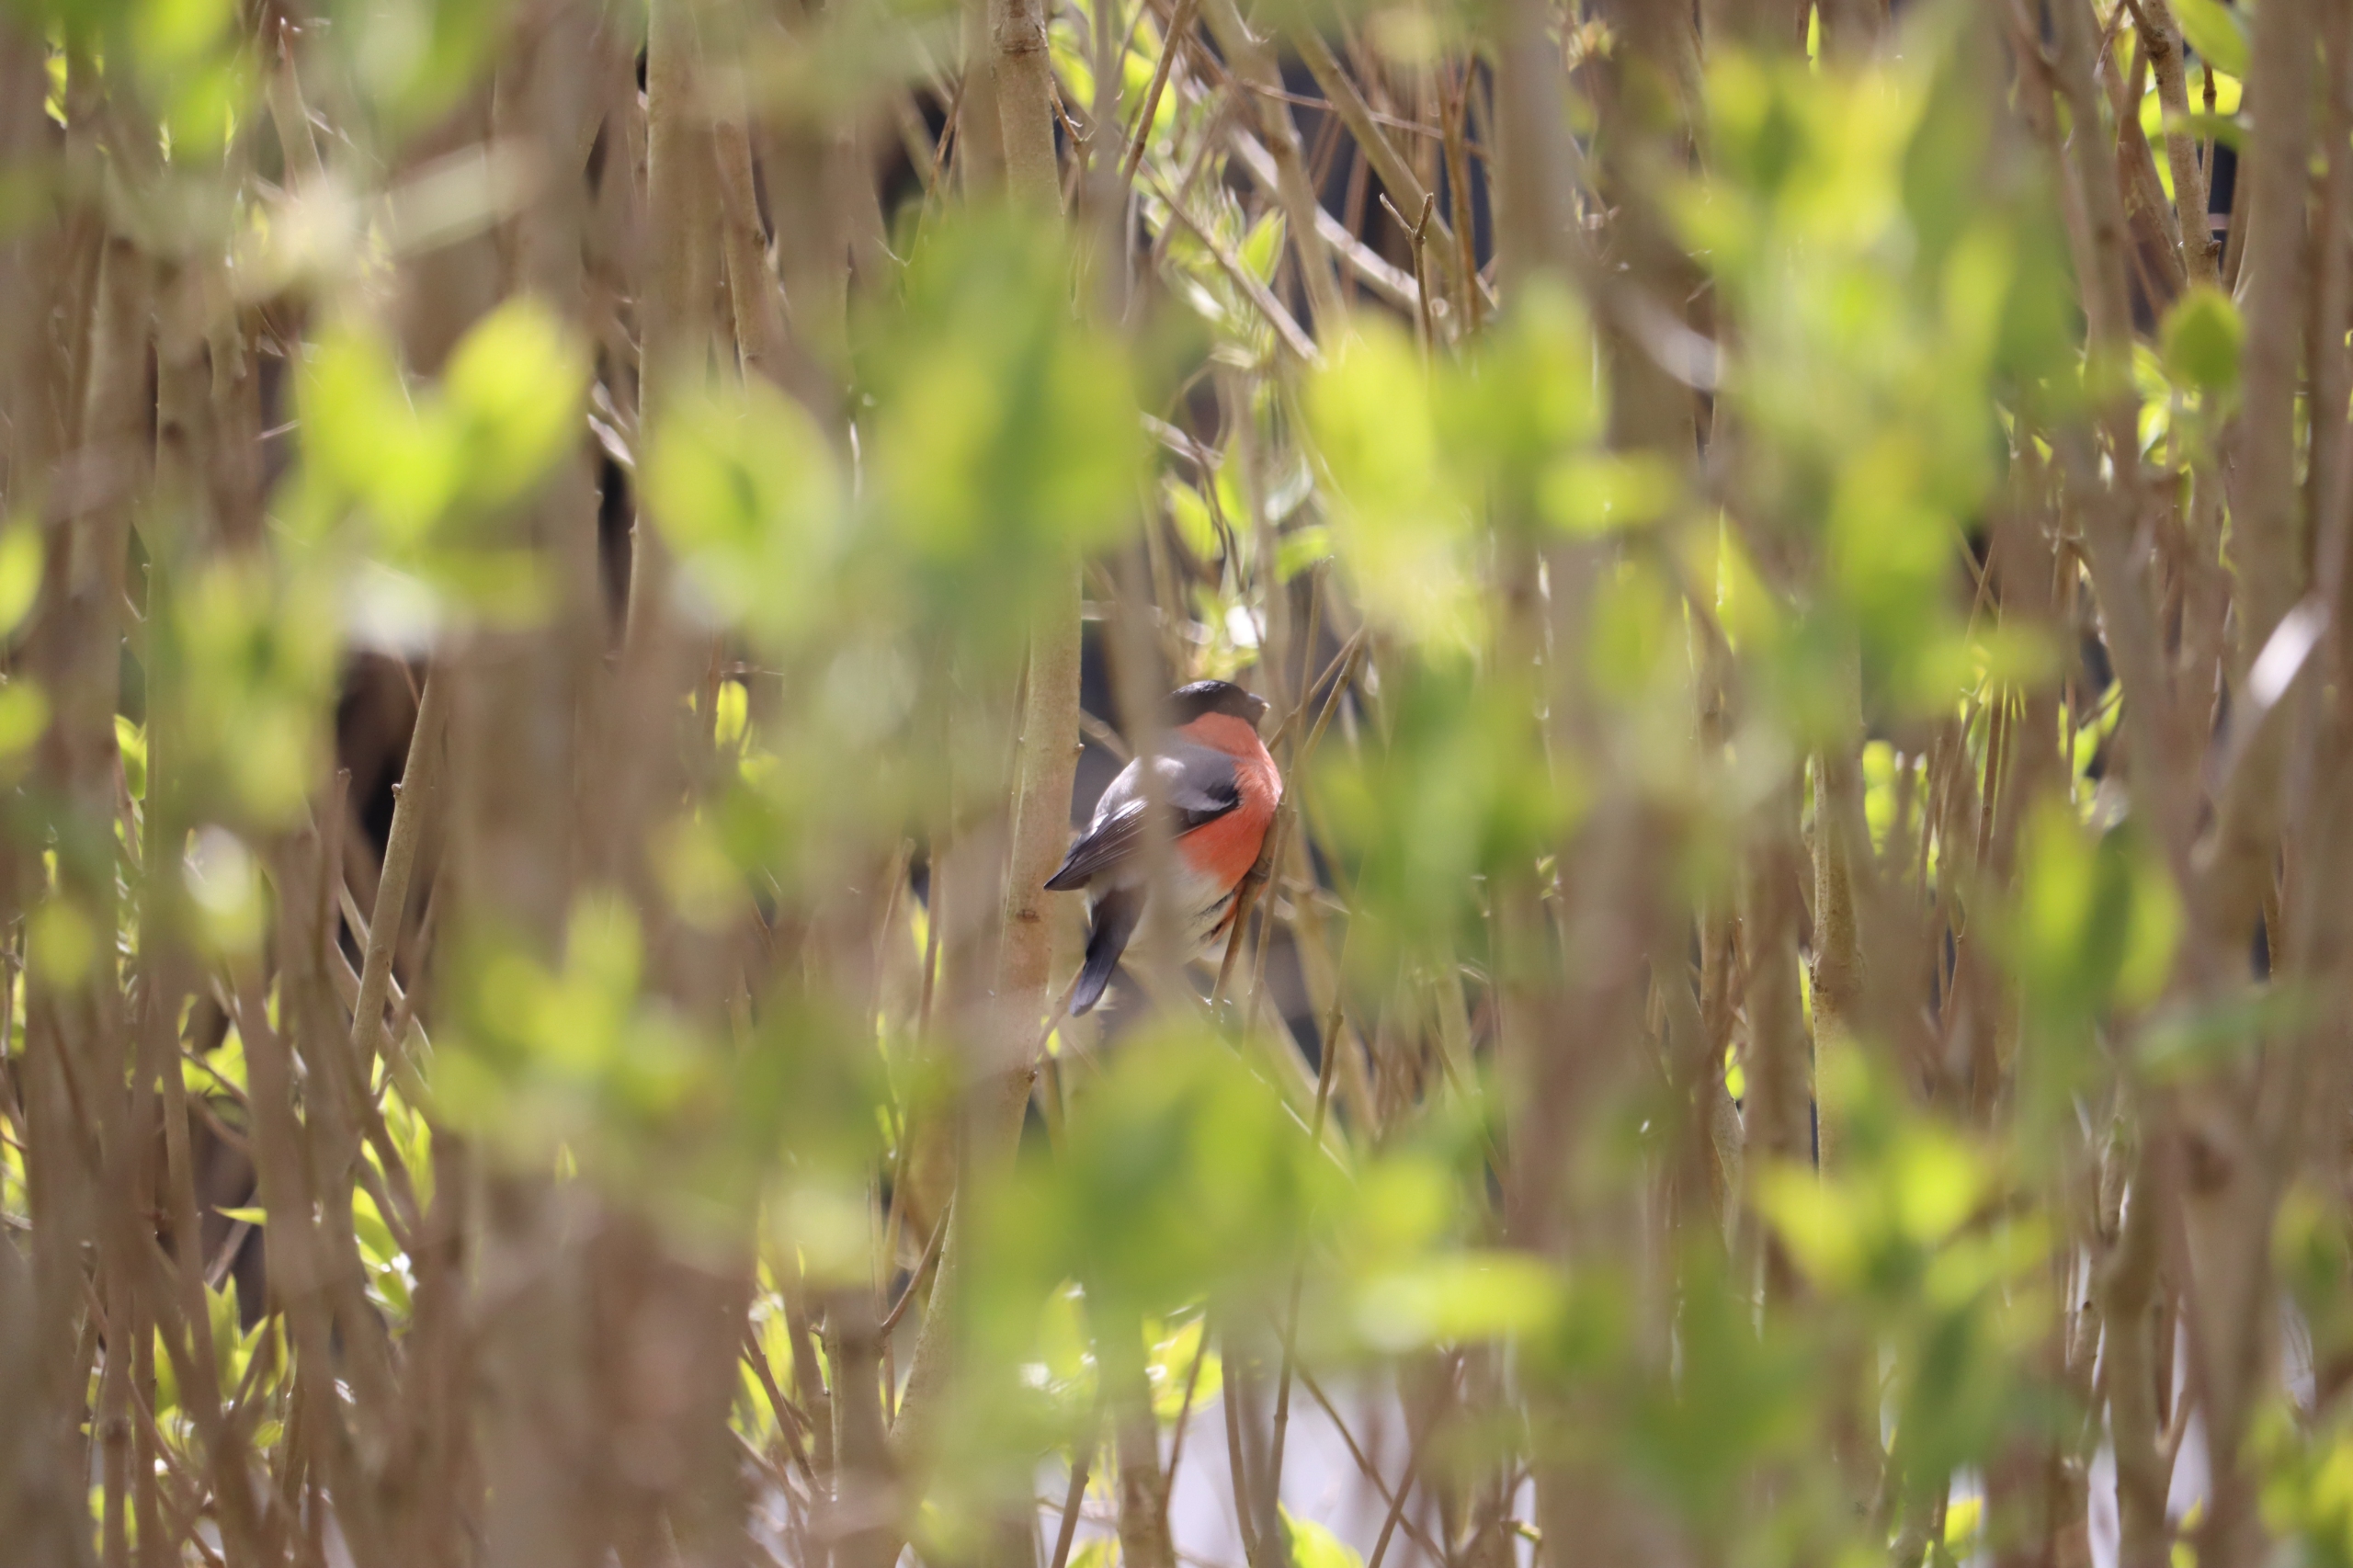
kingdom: Animalia
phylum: Chordata
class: Aves
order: Passeriformes
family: Fringillidae
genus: Pyrrhula
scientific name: Pyrrhula pyrrhula
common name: Dompap
